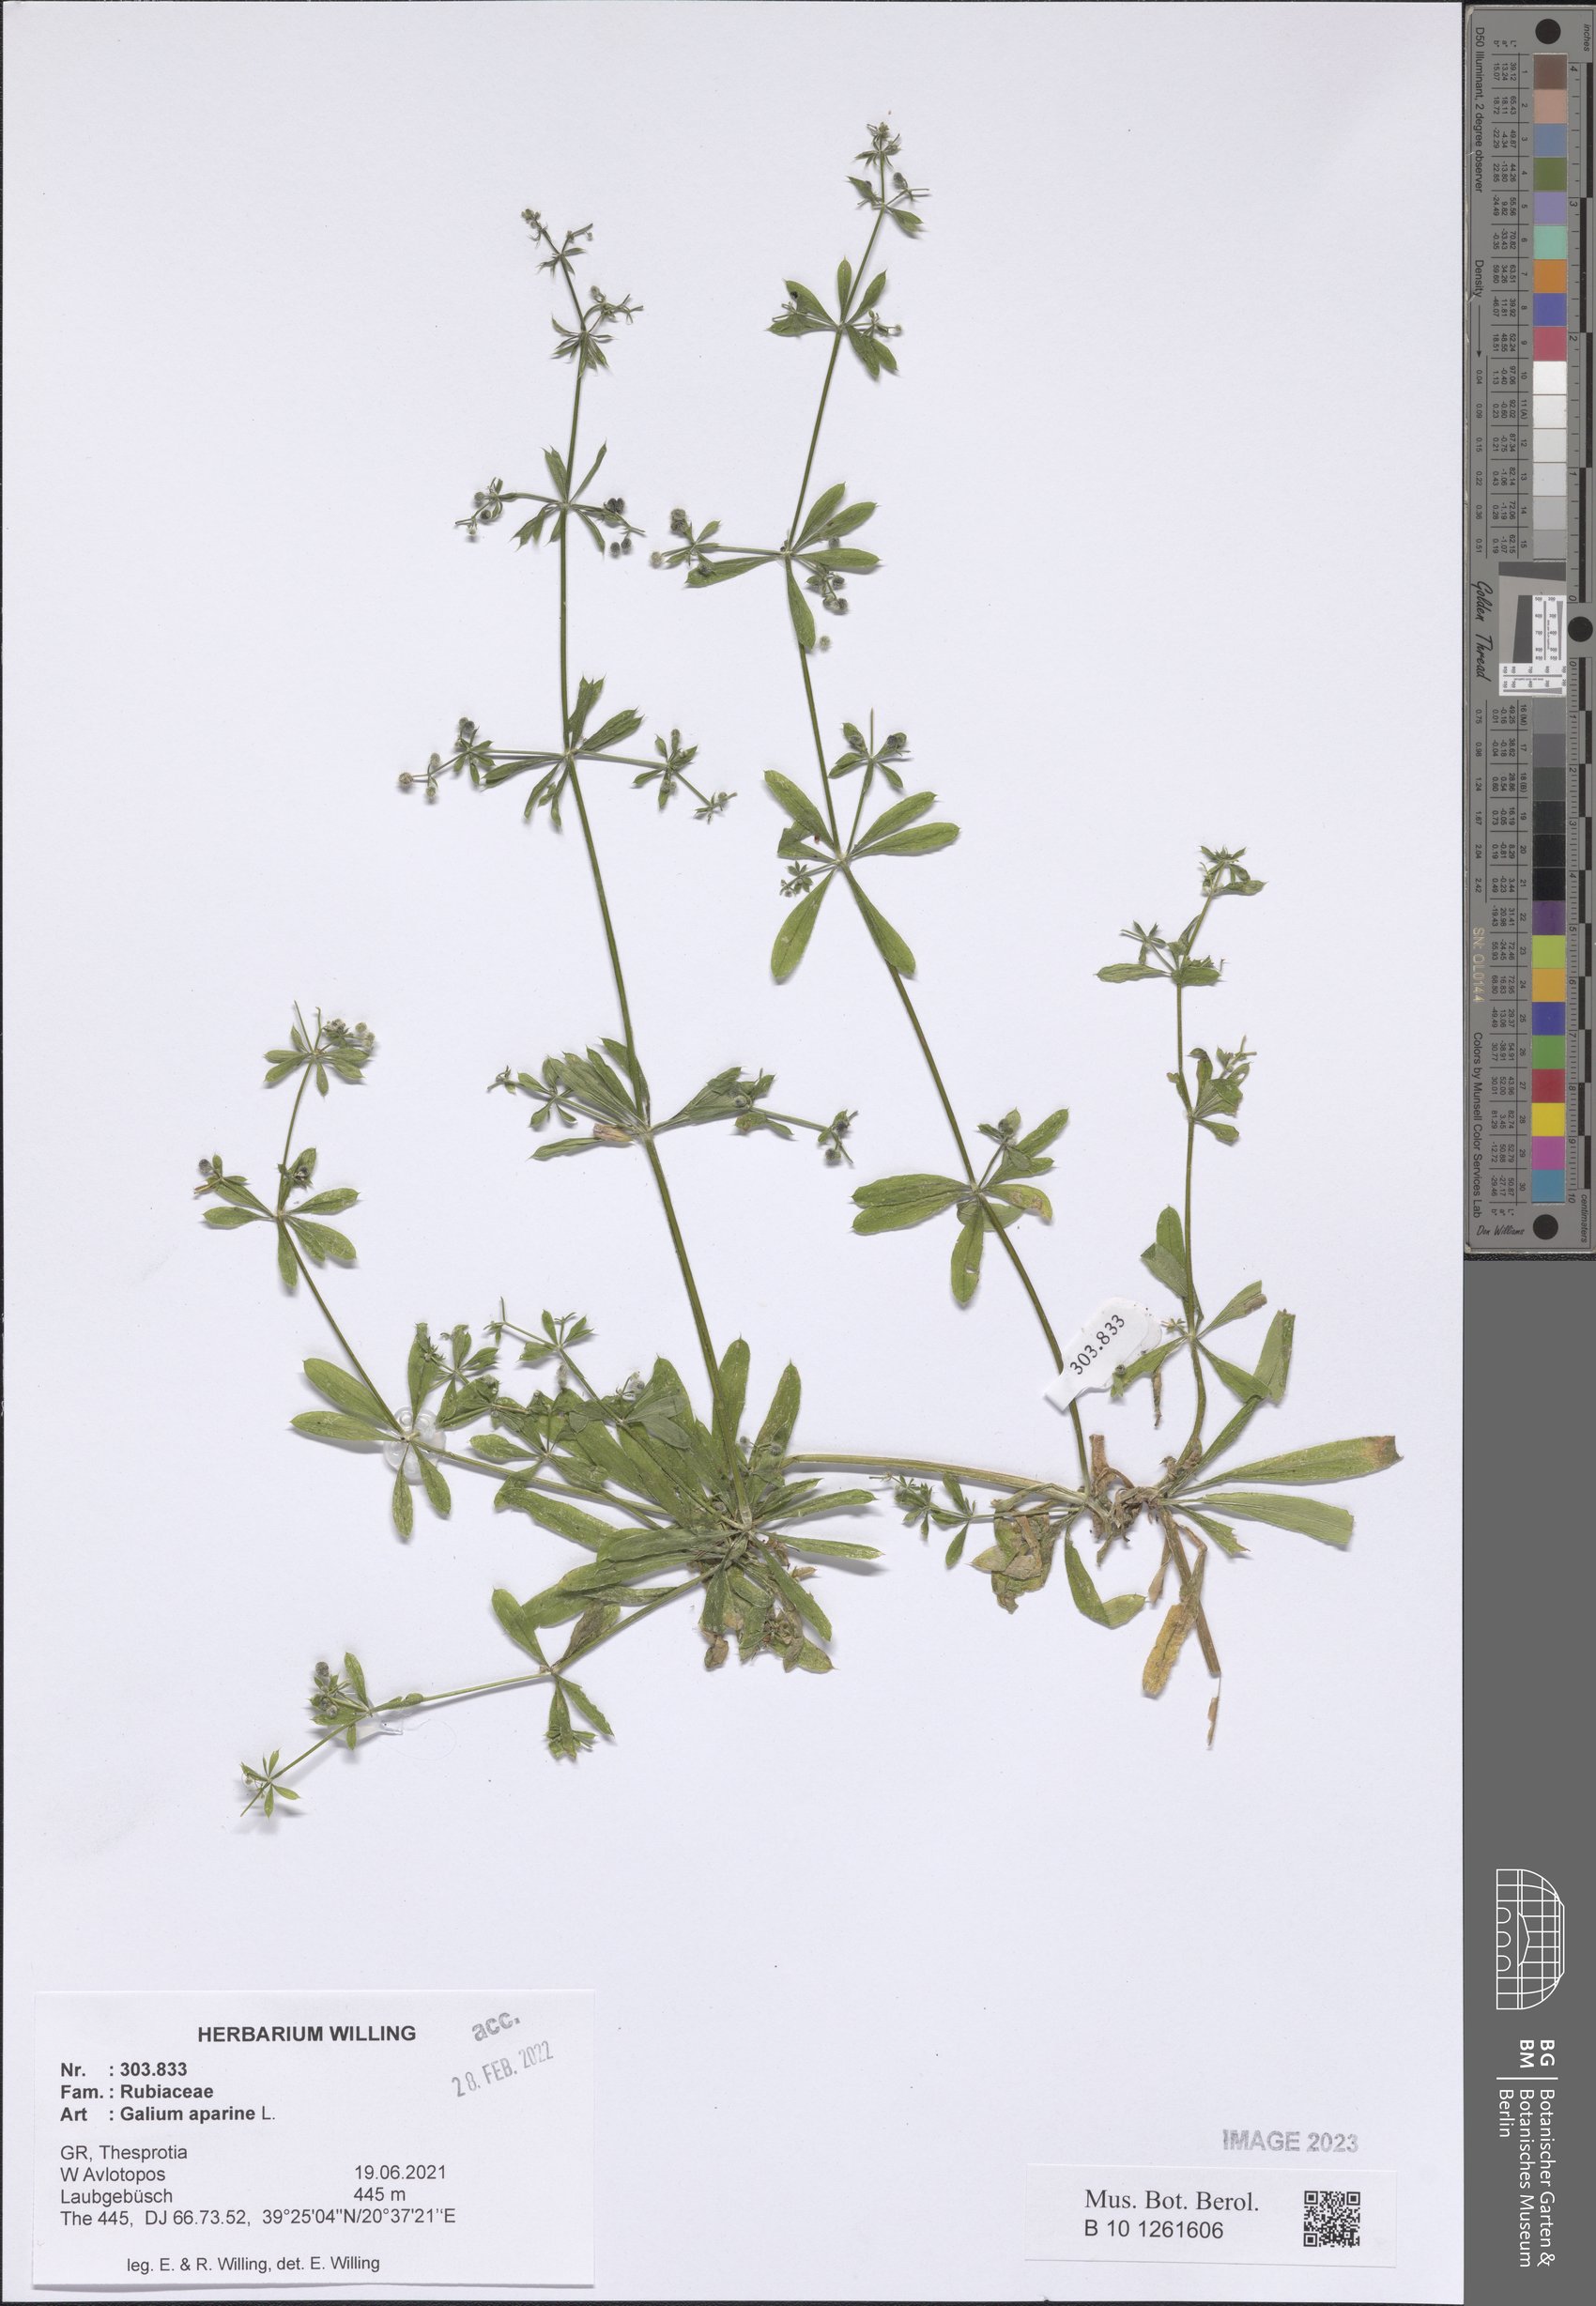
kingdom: Plantae
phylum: Tracheophyta
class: Magnoliopsida
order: Gentianales
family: Rubiaceae
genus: Galium
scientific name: Galium aparine
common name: Cleavers
